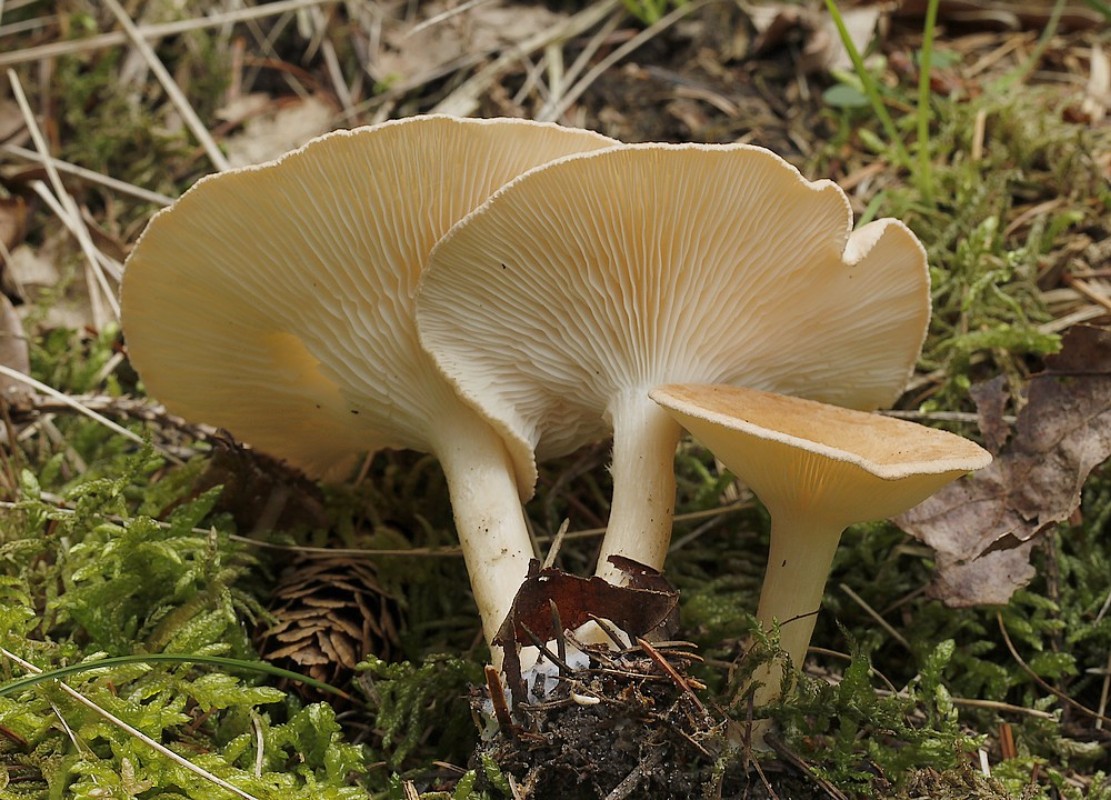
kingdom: Fungi
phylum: Basidiomycota
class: Agaricomycetes
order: Agaricales
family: Tricholomataceae
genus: Infundibulicybe
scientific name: Infundibulicybe gibba
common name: almindelig tragthat
